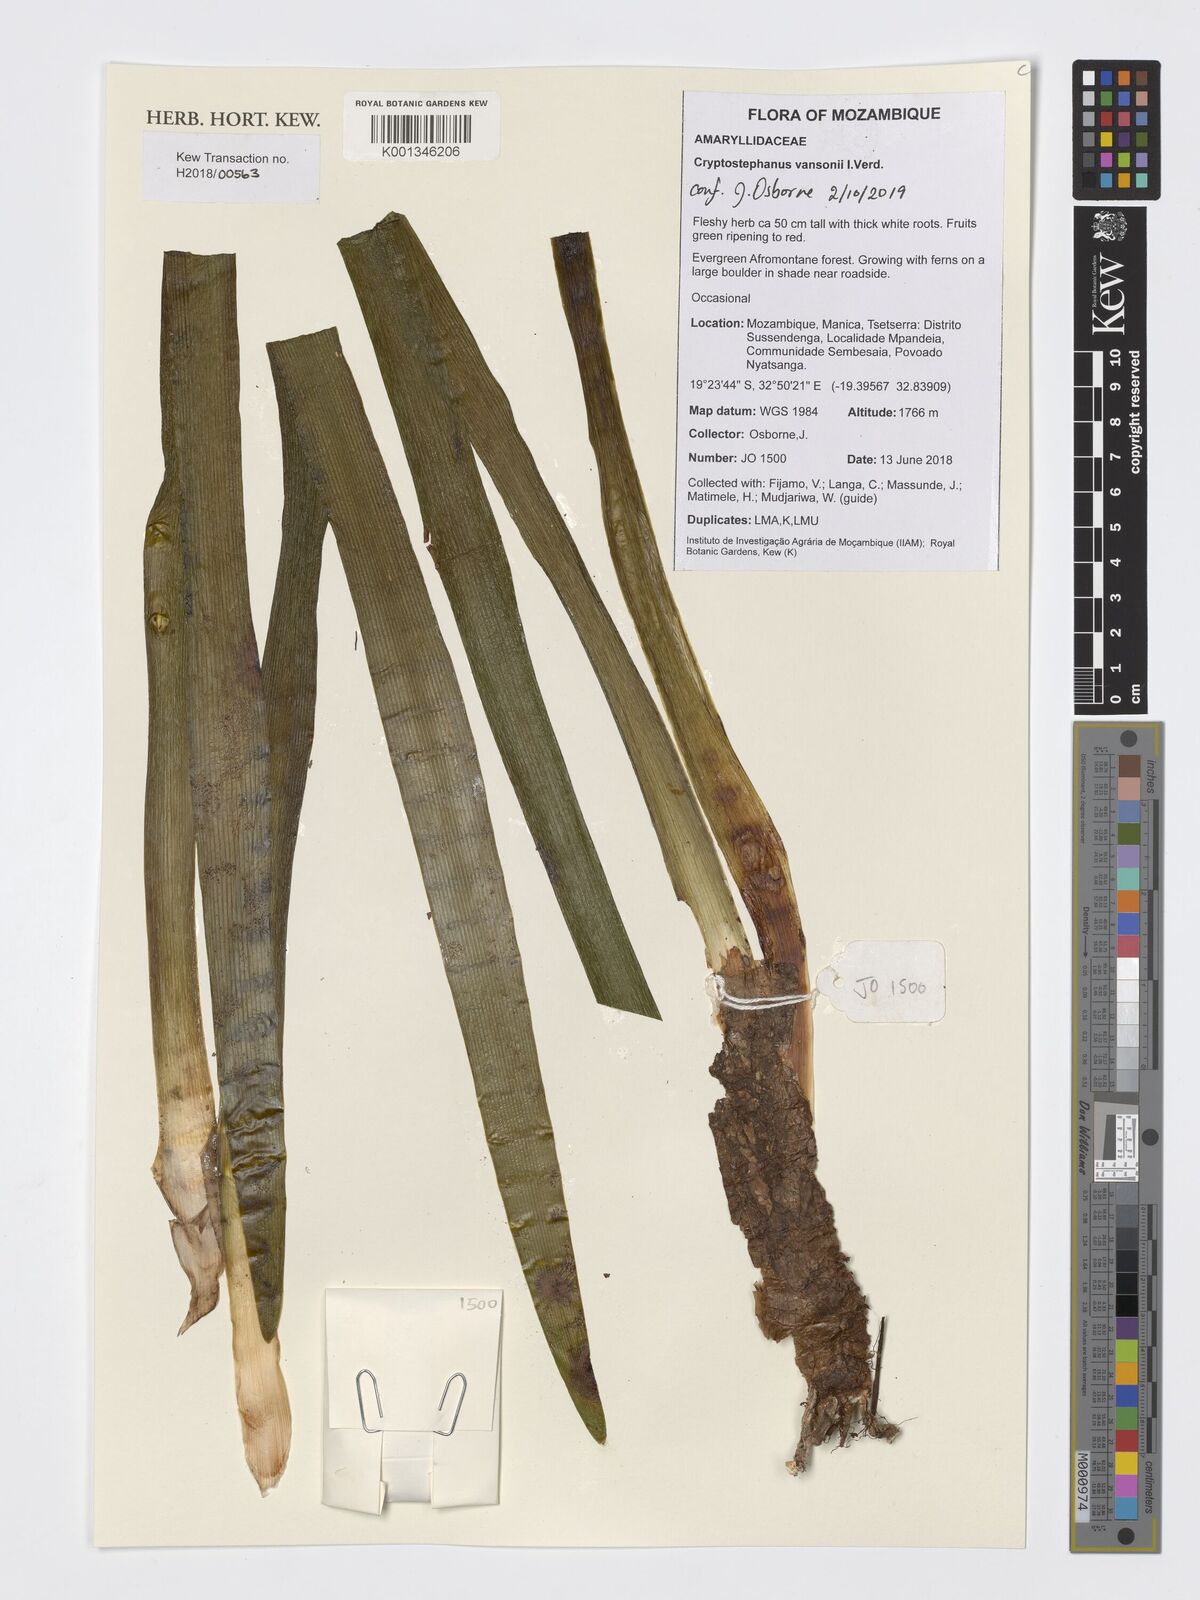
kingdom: Plantae
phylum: Tracheophyta
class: Liliopsida
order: Asparagales
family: Amaryllidaceae
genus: Cryptostephanus
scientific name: Cryptostephanus vansonii
